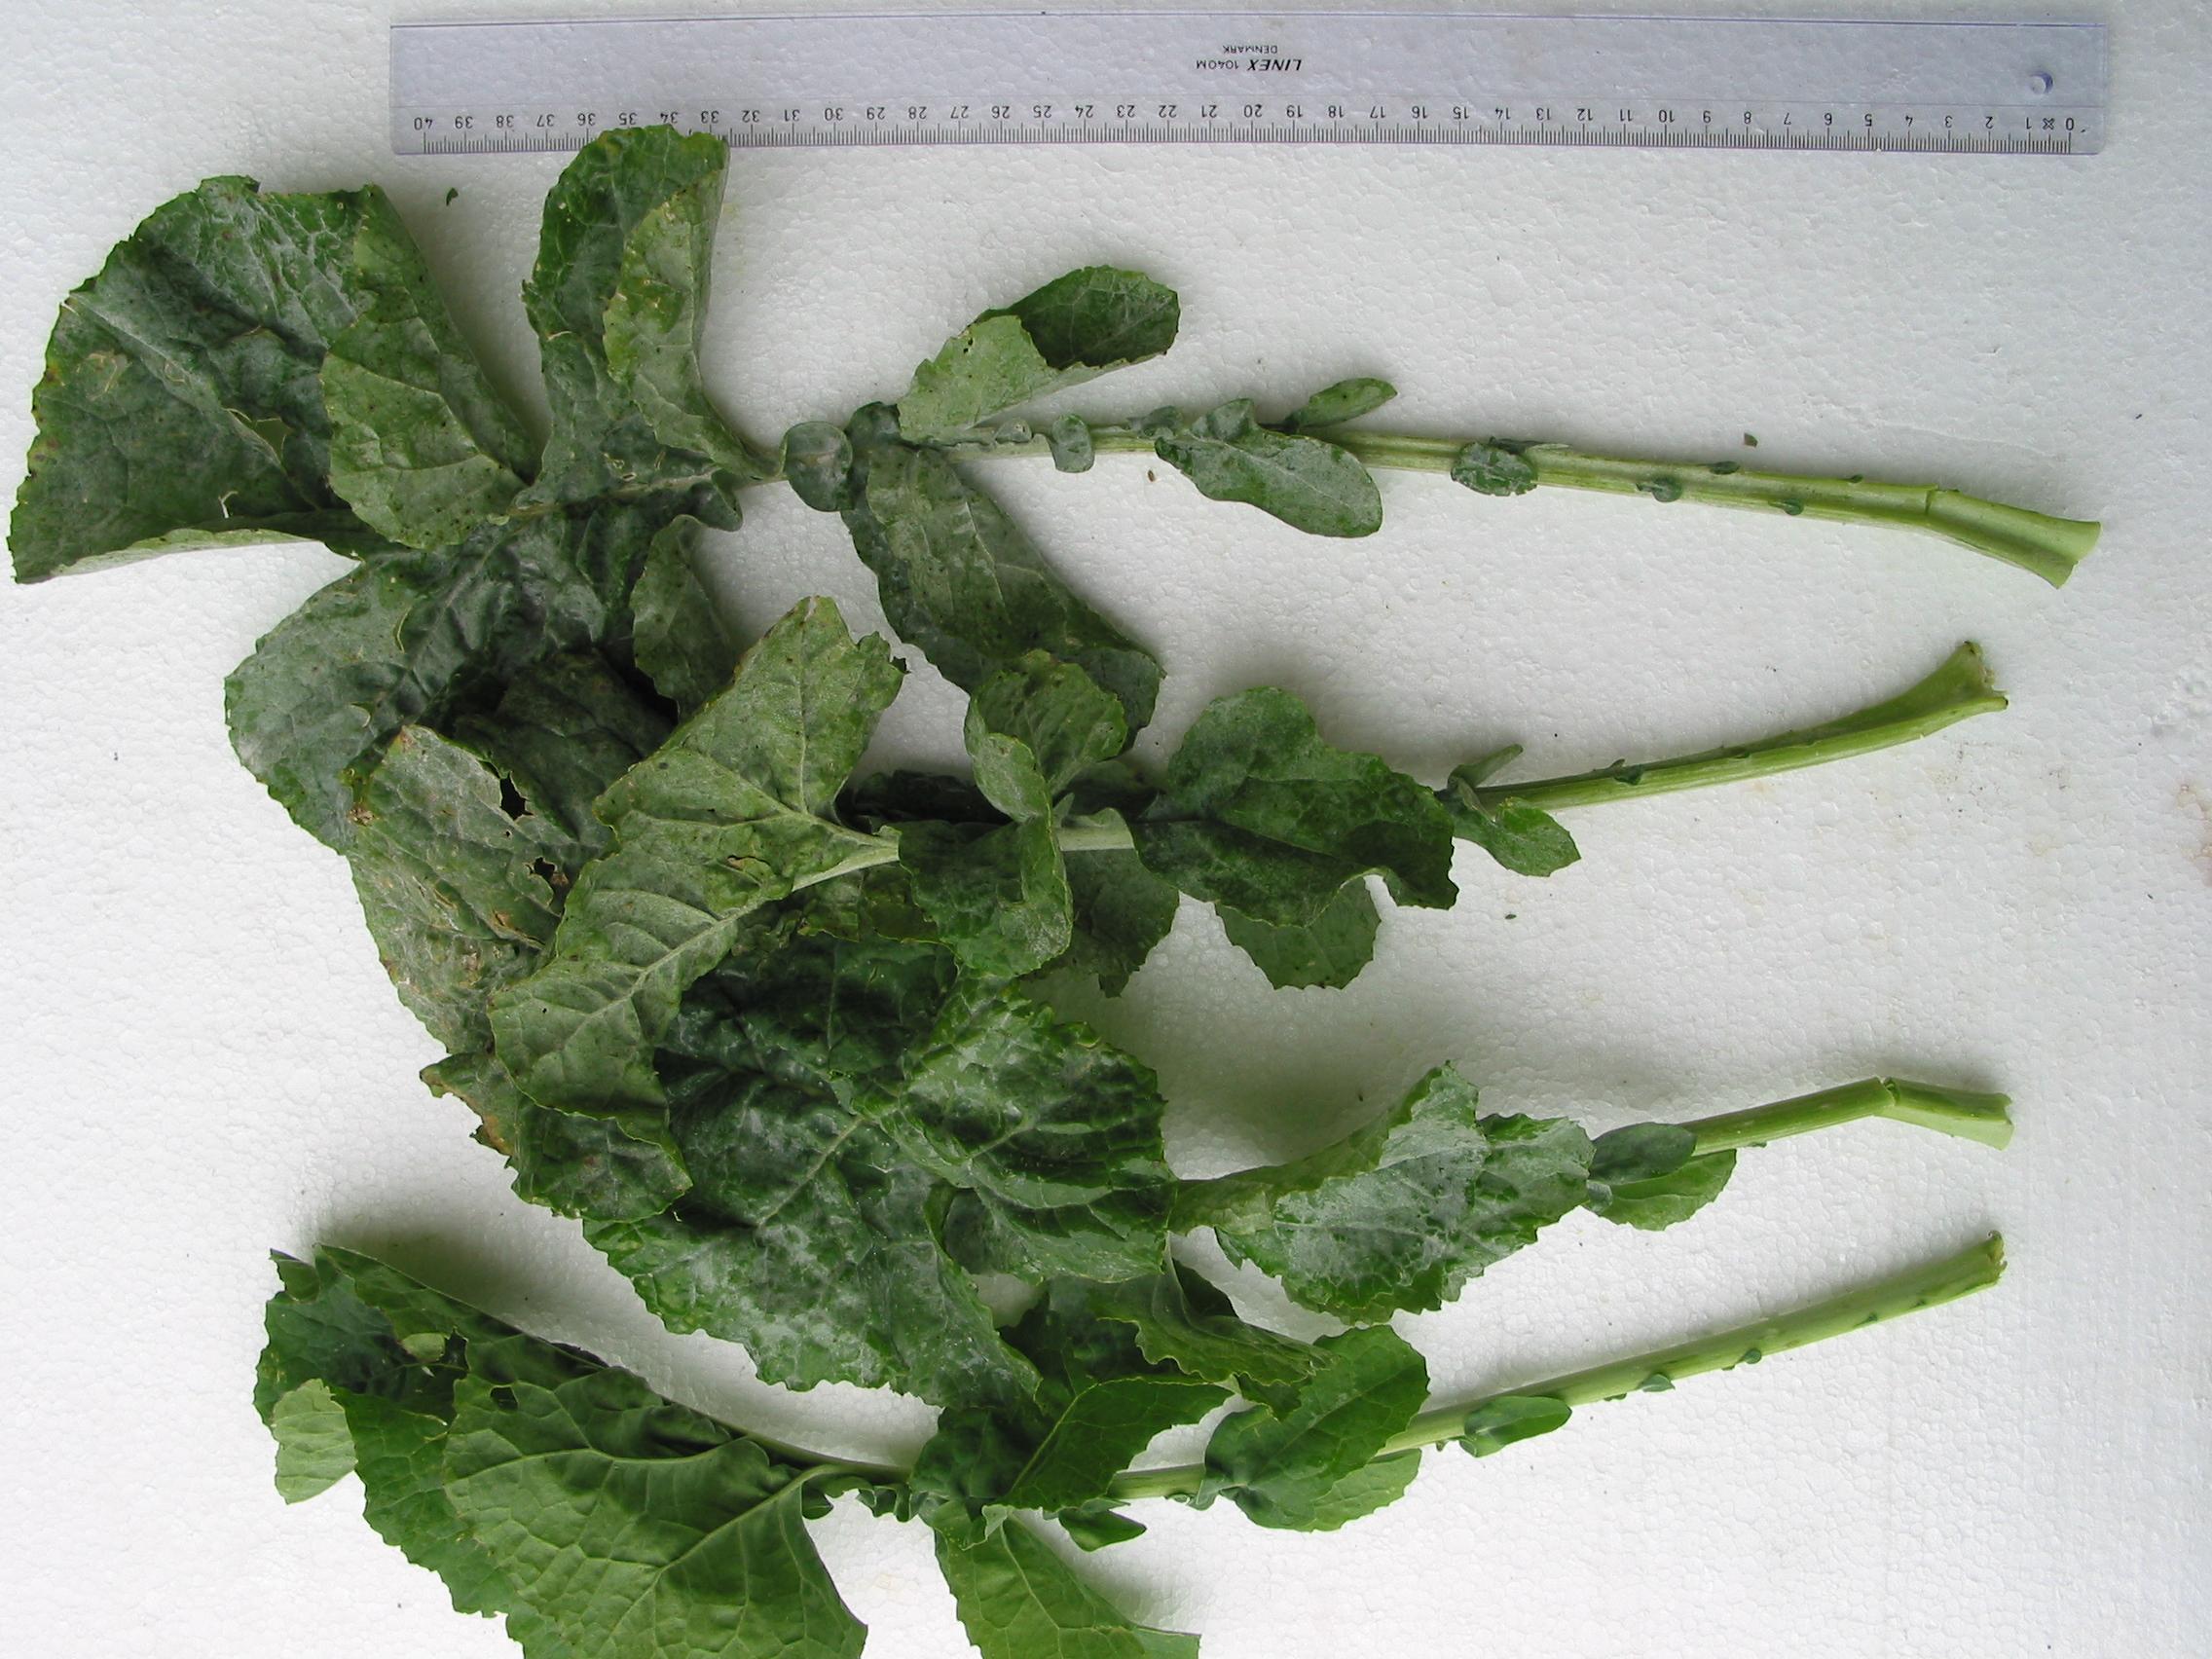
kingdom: Plantae
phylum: Tracheophyta
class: Magnoliopsida
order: Brassicales
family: Brassicaceae
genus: Brassica
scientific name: Brassica napus
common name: Rape
